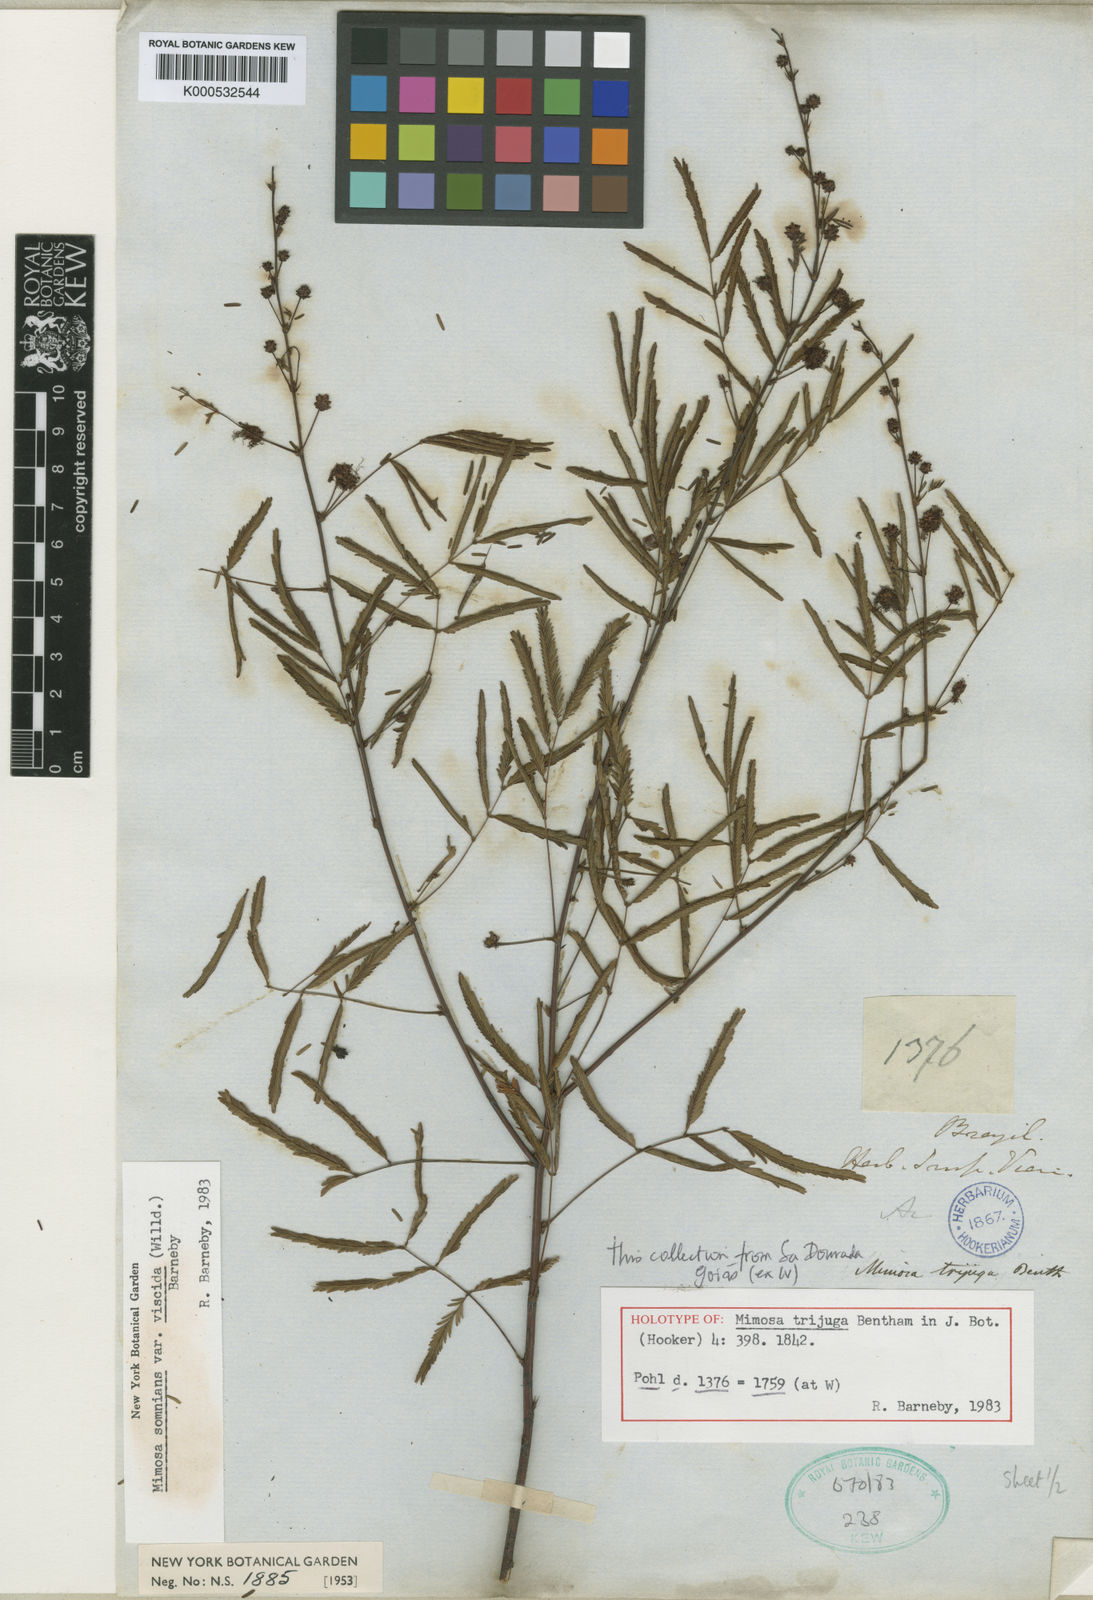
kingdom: Plantae
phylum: Tracheophyta
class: Magnoliopsida
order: Fabales
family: Fabaceae
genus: Mimosa
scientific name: Mimosa somnians
